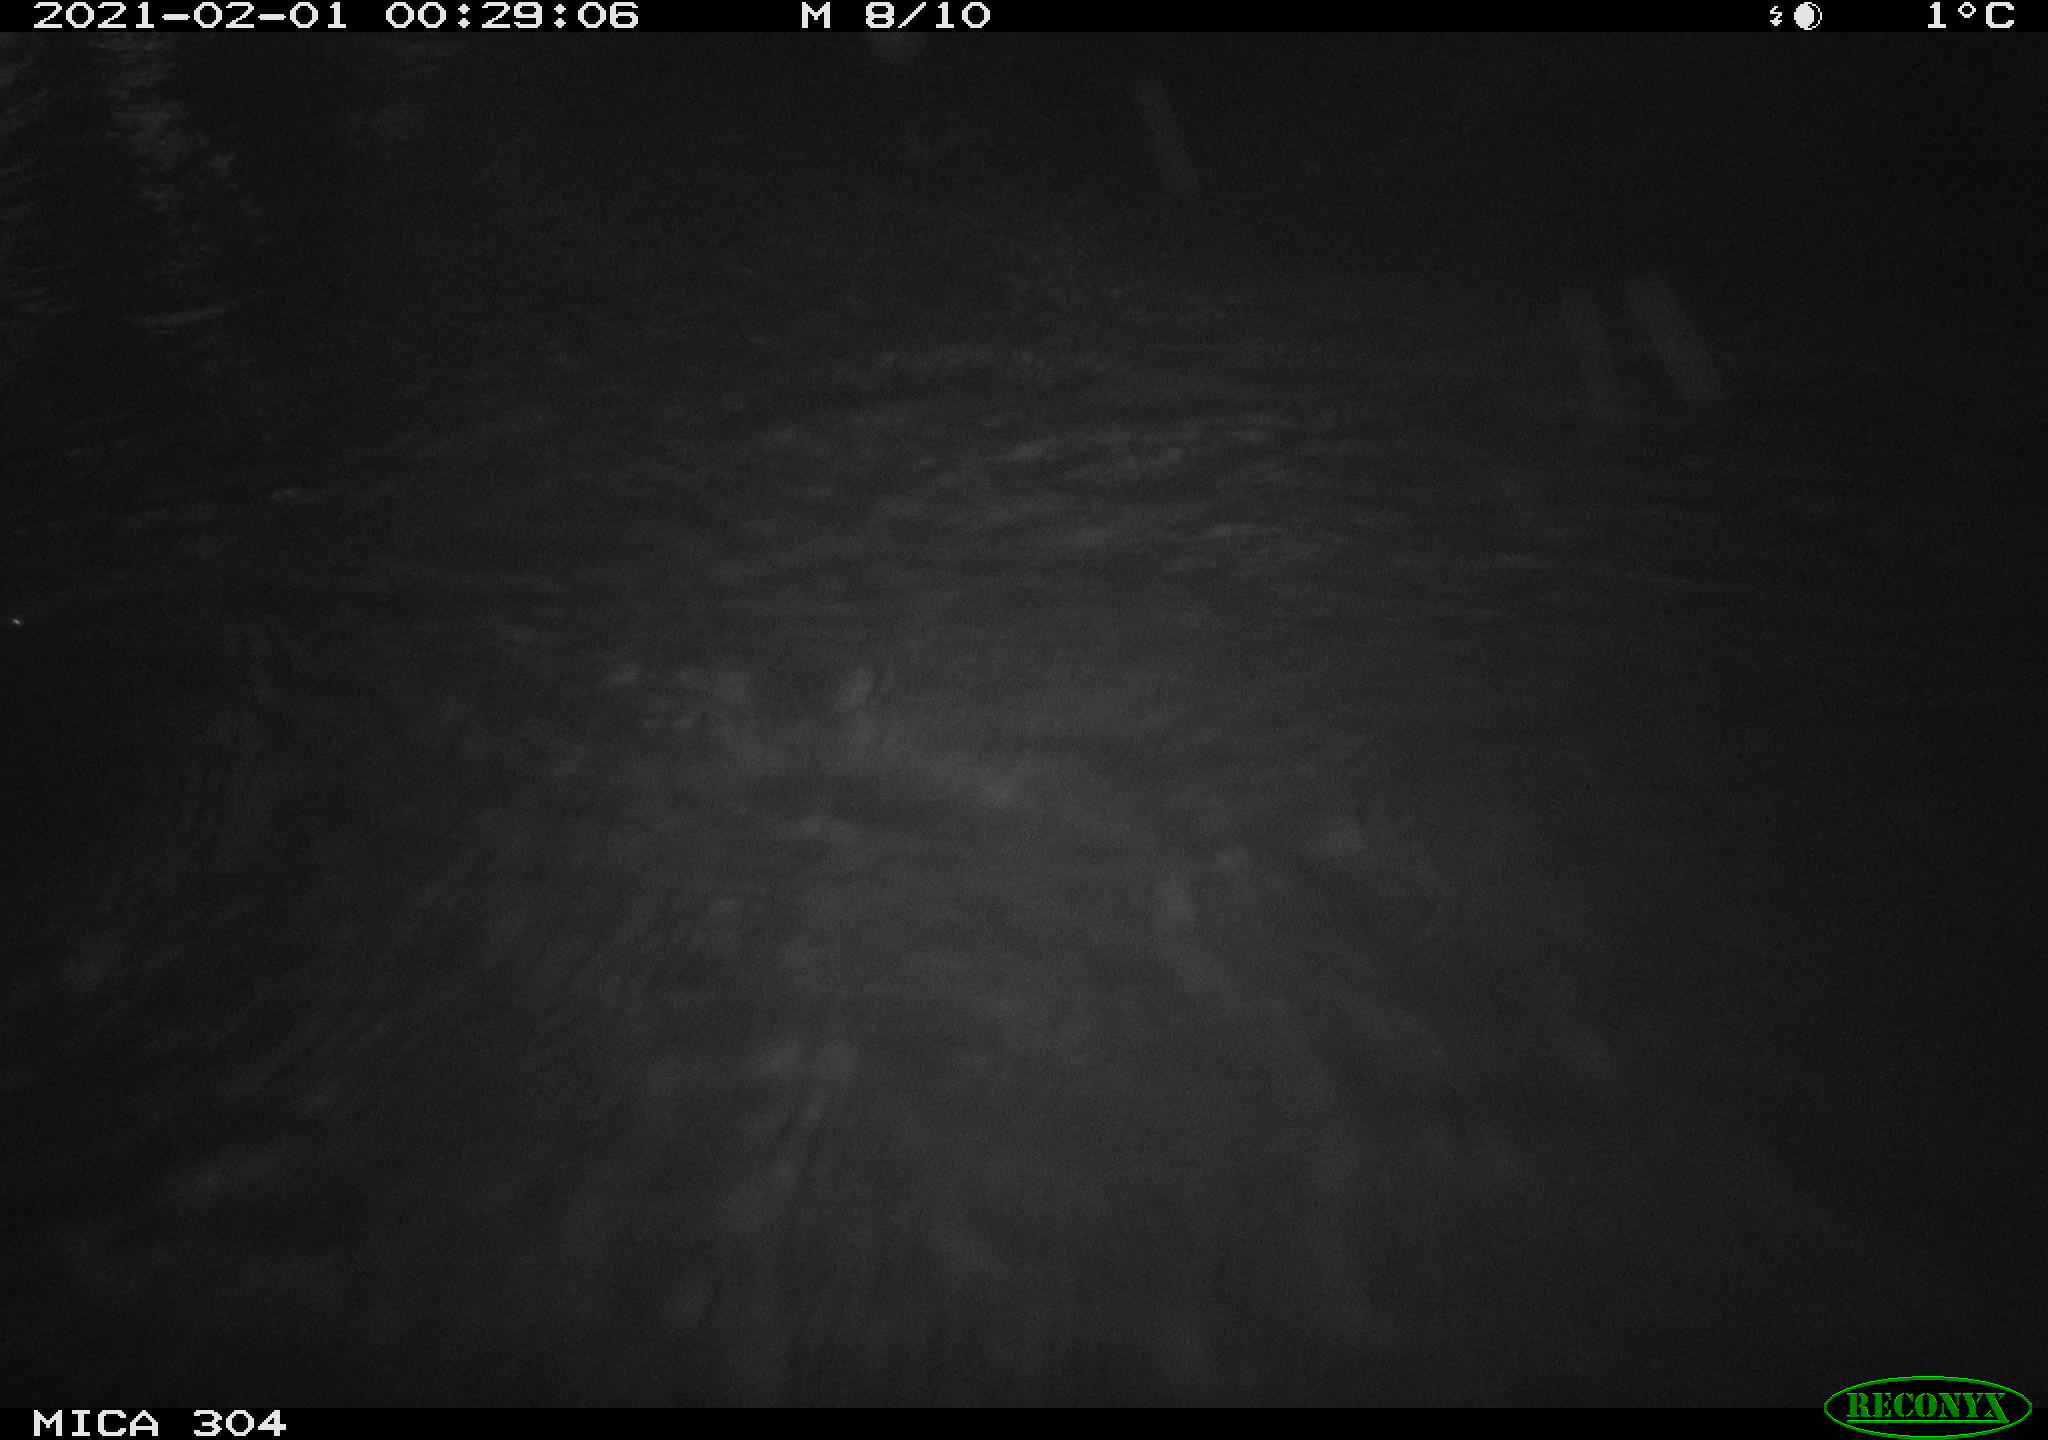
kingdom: Animalia
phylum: Chordata
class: Mammalia
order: Rodentia
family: Cricetidae
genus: Ondatra
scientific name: Ondatra zibethicus
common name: Muskrat
